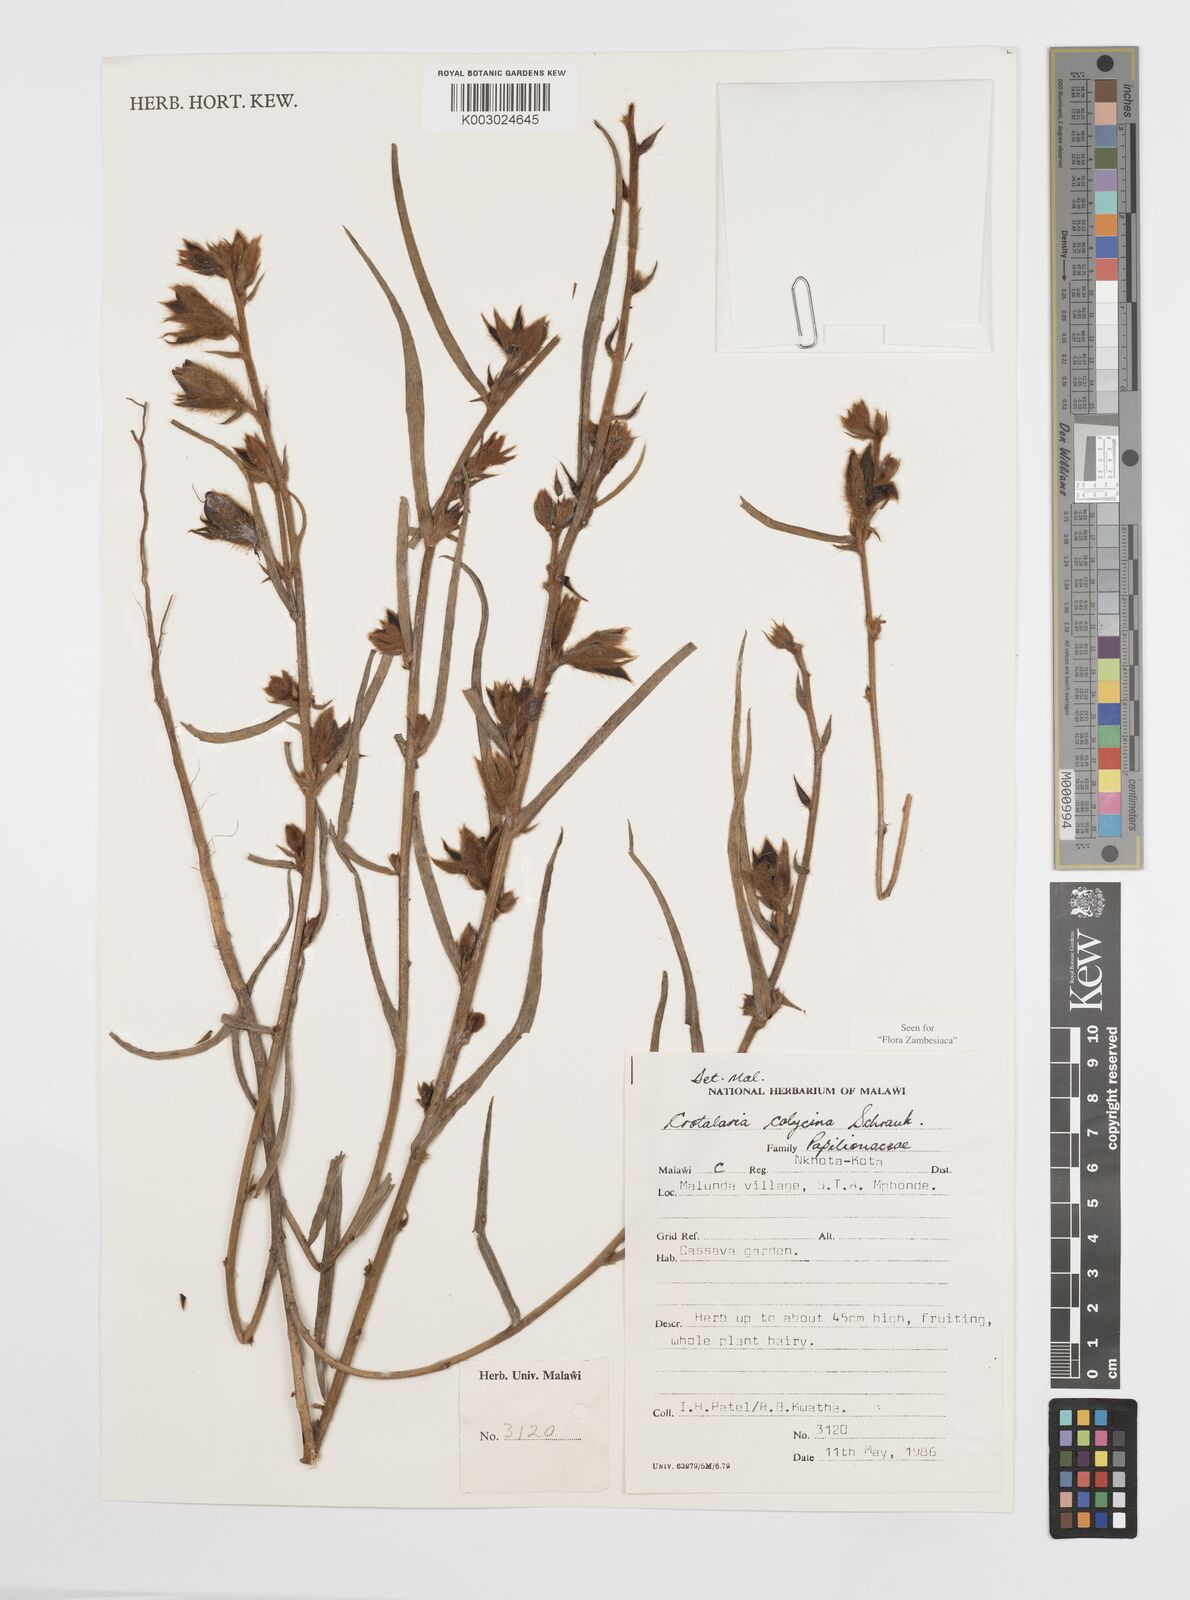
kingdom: Plantae
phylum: Tracheophyta
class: Magnoliopsida
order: Fabales
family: Fabaceae
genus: Crotalaria
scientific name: Crotalaria calycina
